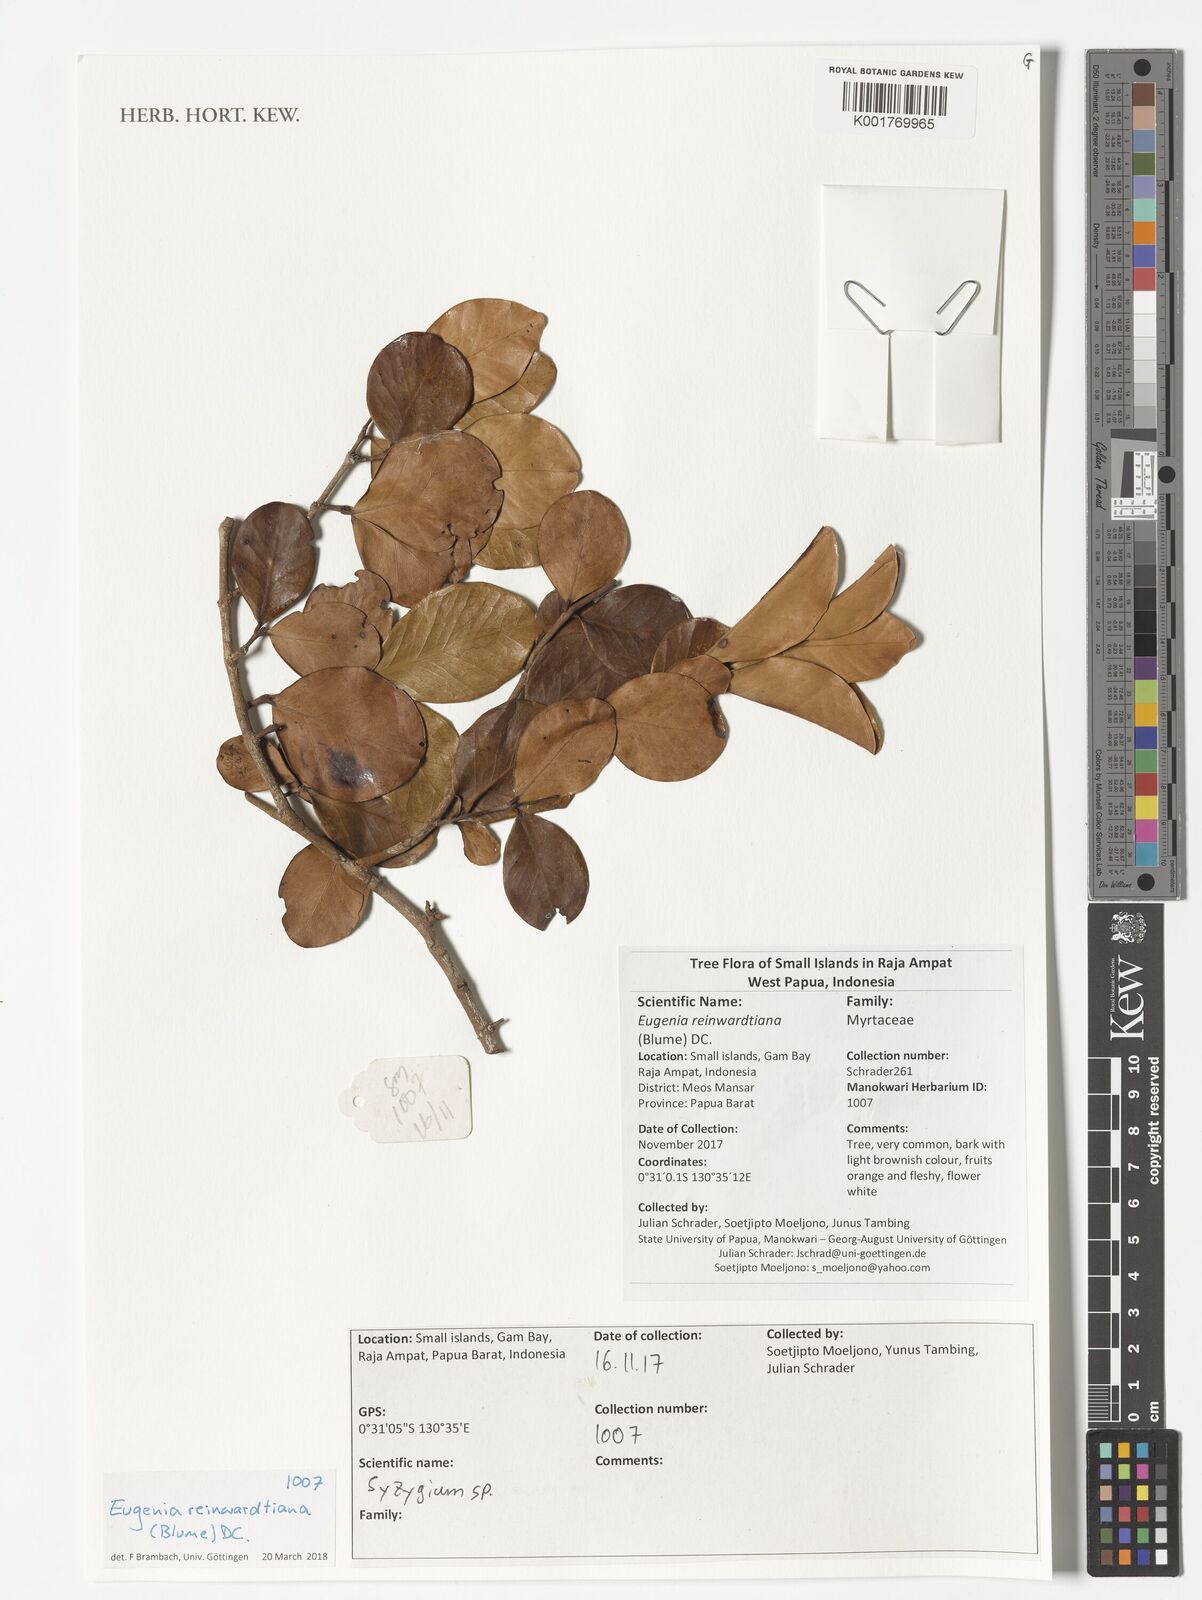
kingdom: Plantae
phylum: Tracheophyta
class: Magnoliopsida
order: Myrtales
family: Myrtaceae
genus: Eugenia
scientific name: Eugenia reinwardtiana
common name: Cedar bay-cherry
